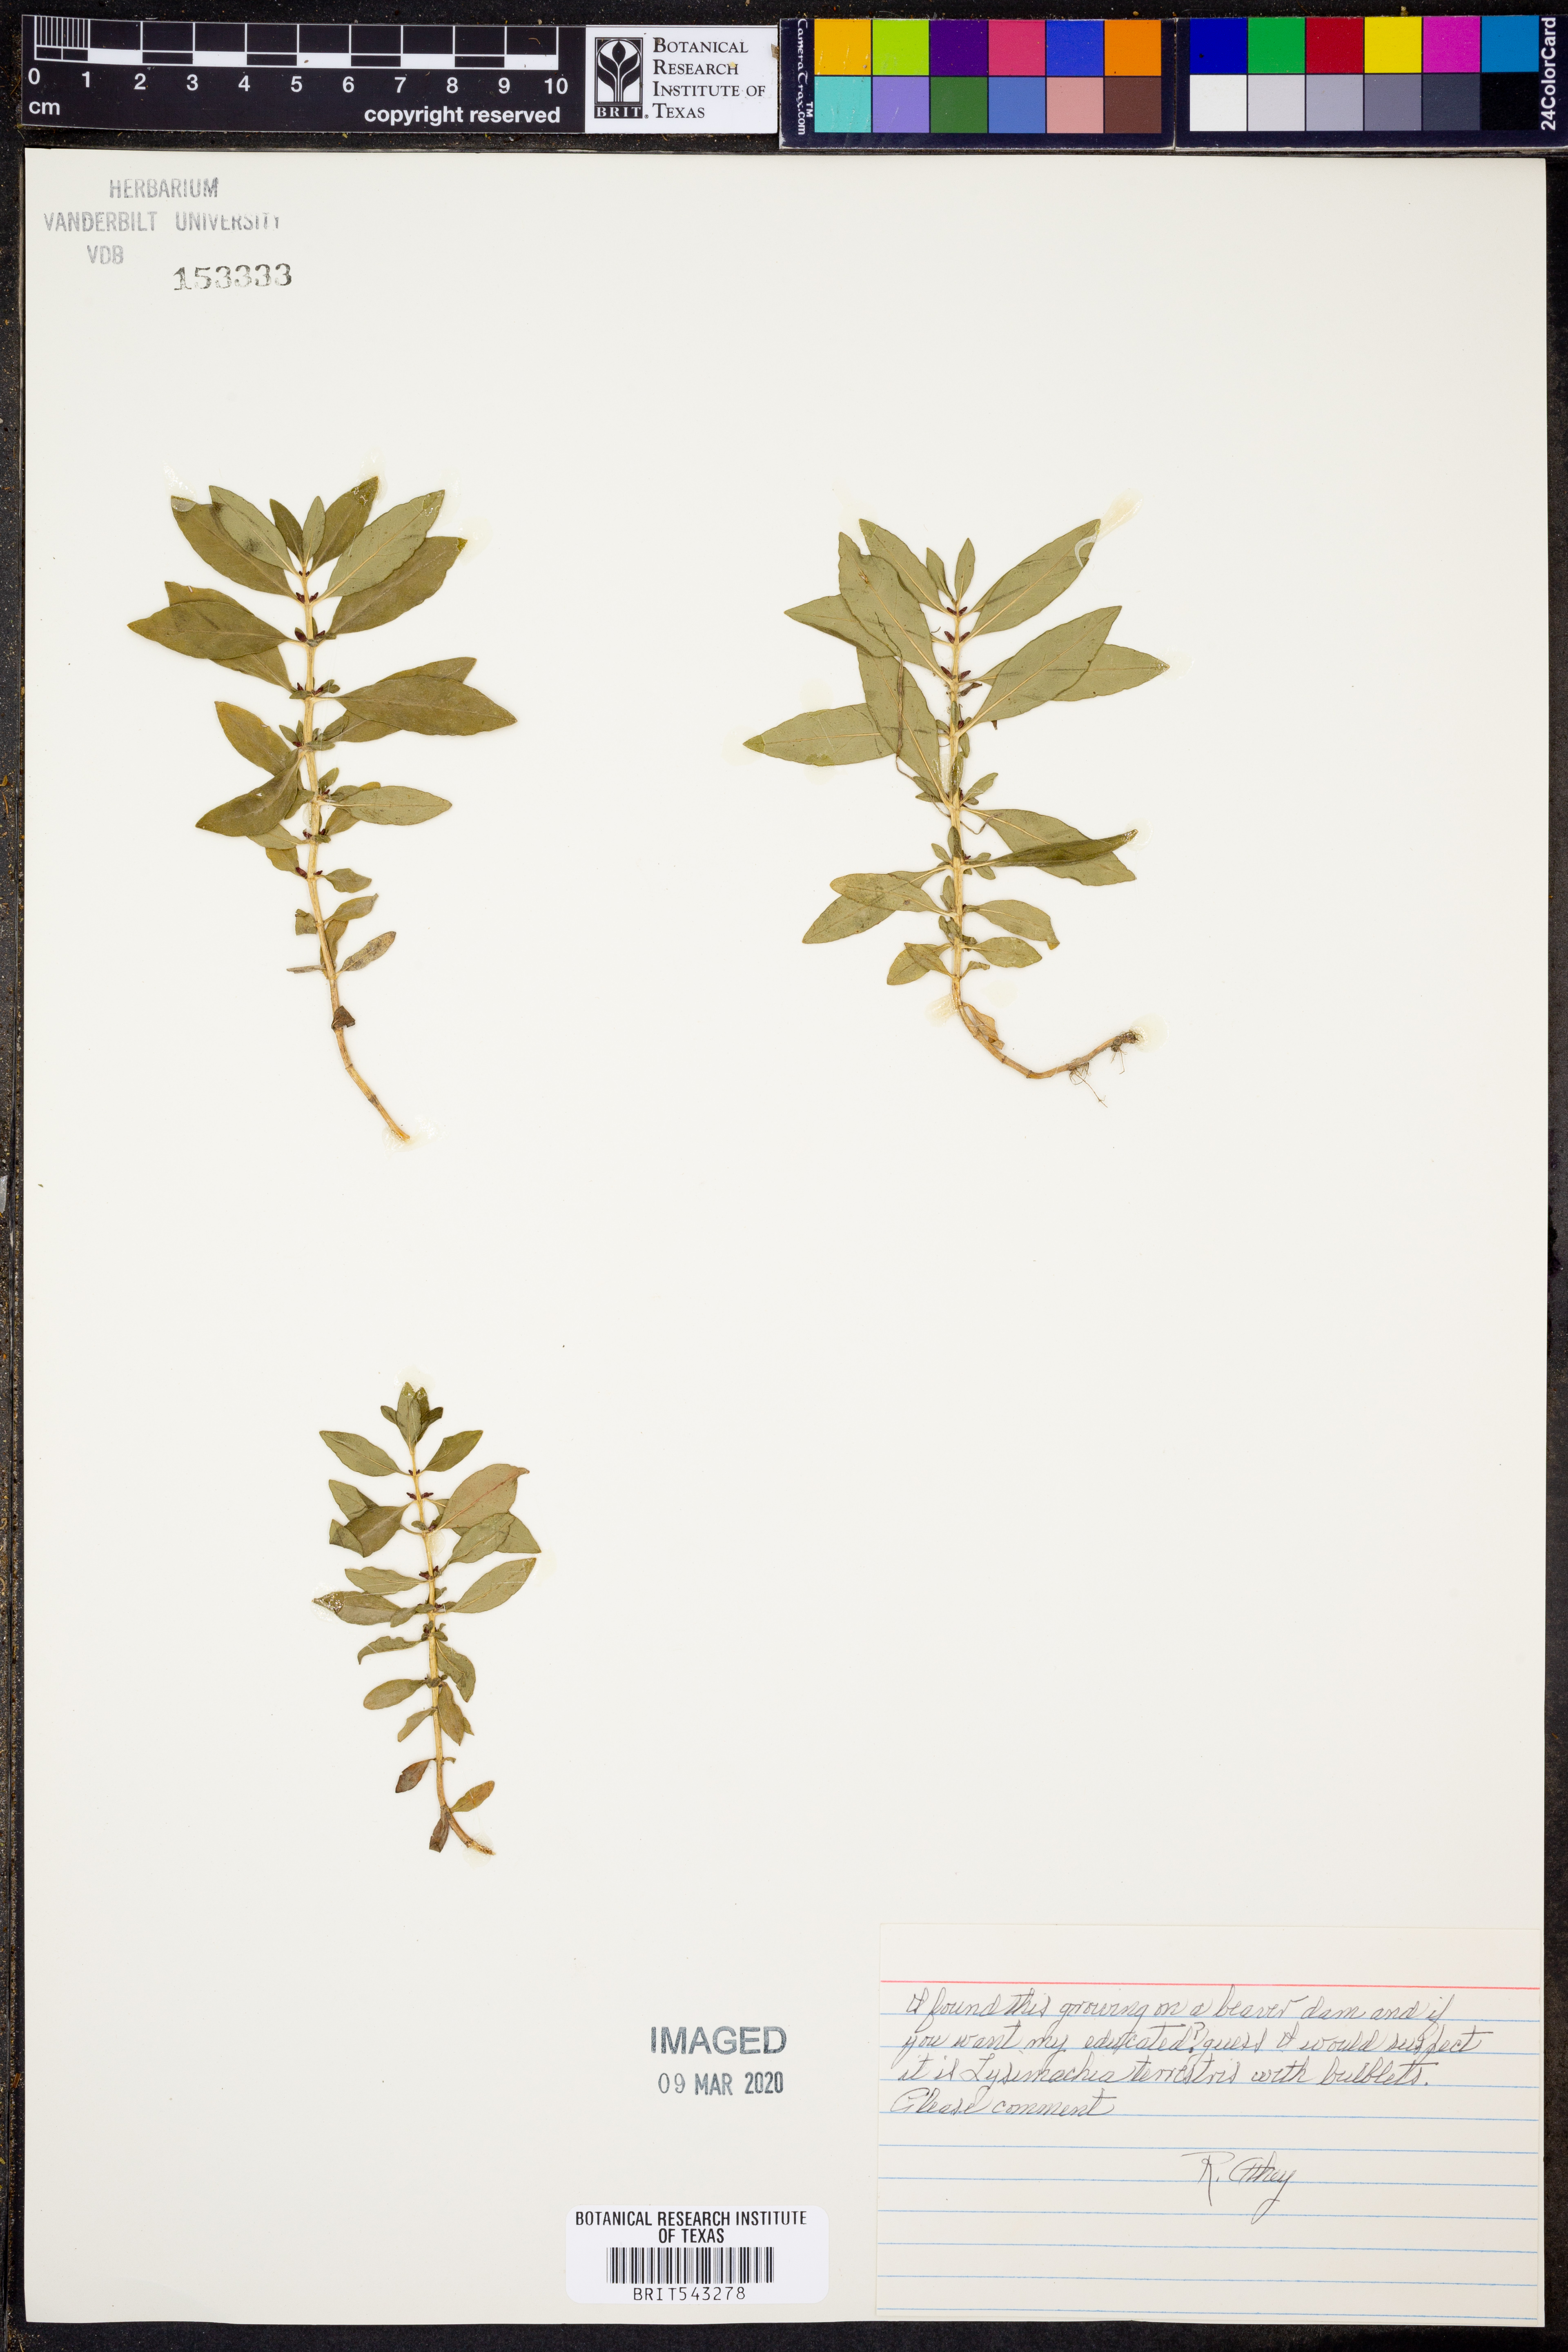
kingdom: Plantae
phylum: Tracheophyta
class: Magnoliopsida
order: Ericales
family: Primulaceae
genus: Lysimachia
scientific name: Lysimachia terrestris
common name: Lake loosestrife
